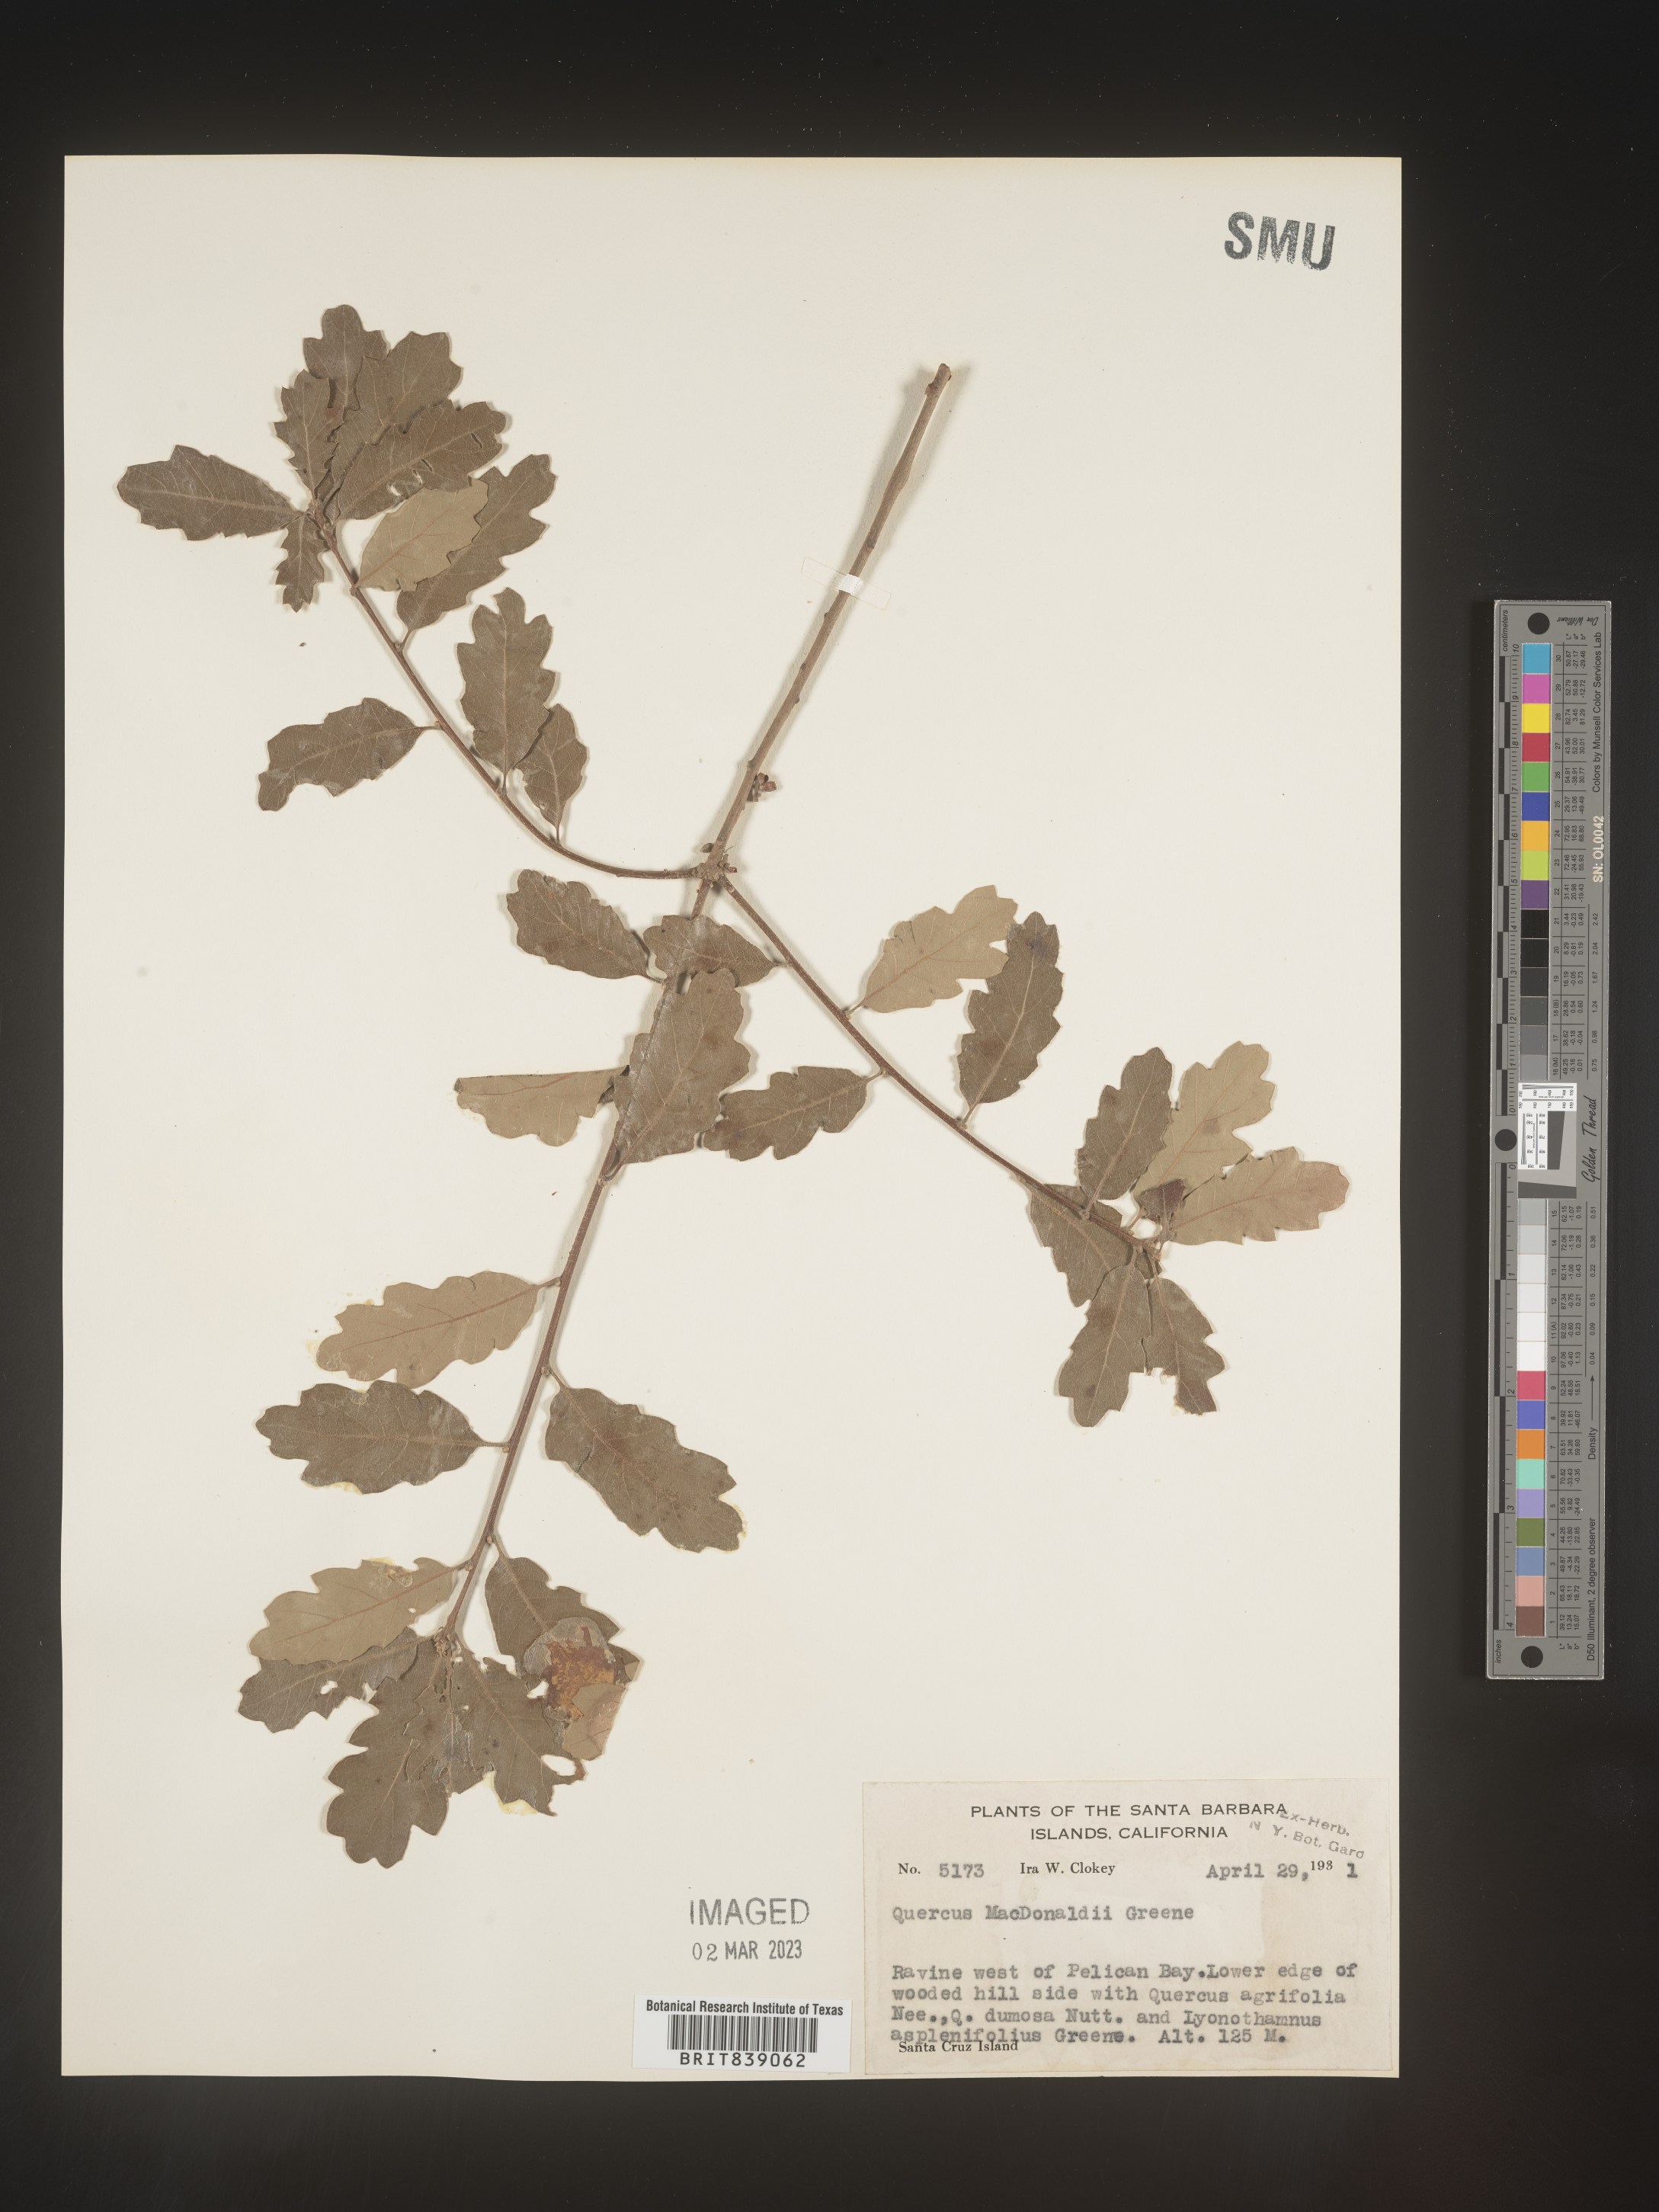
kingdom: Plantae
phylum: Tracheophyta
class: Magnoliopsida
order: Fagales
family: Fagaceae
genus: Quercus
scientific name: Quercus macdonaldii
